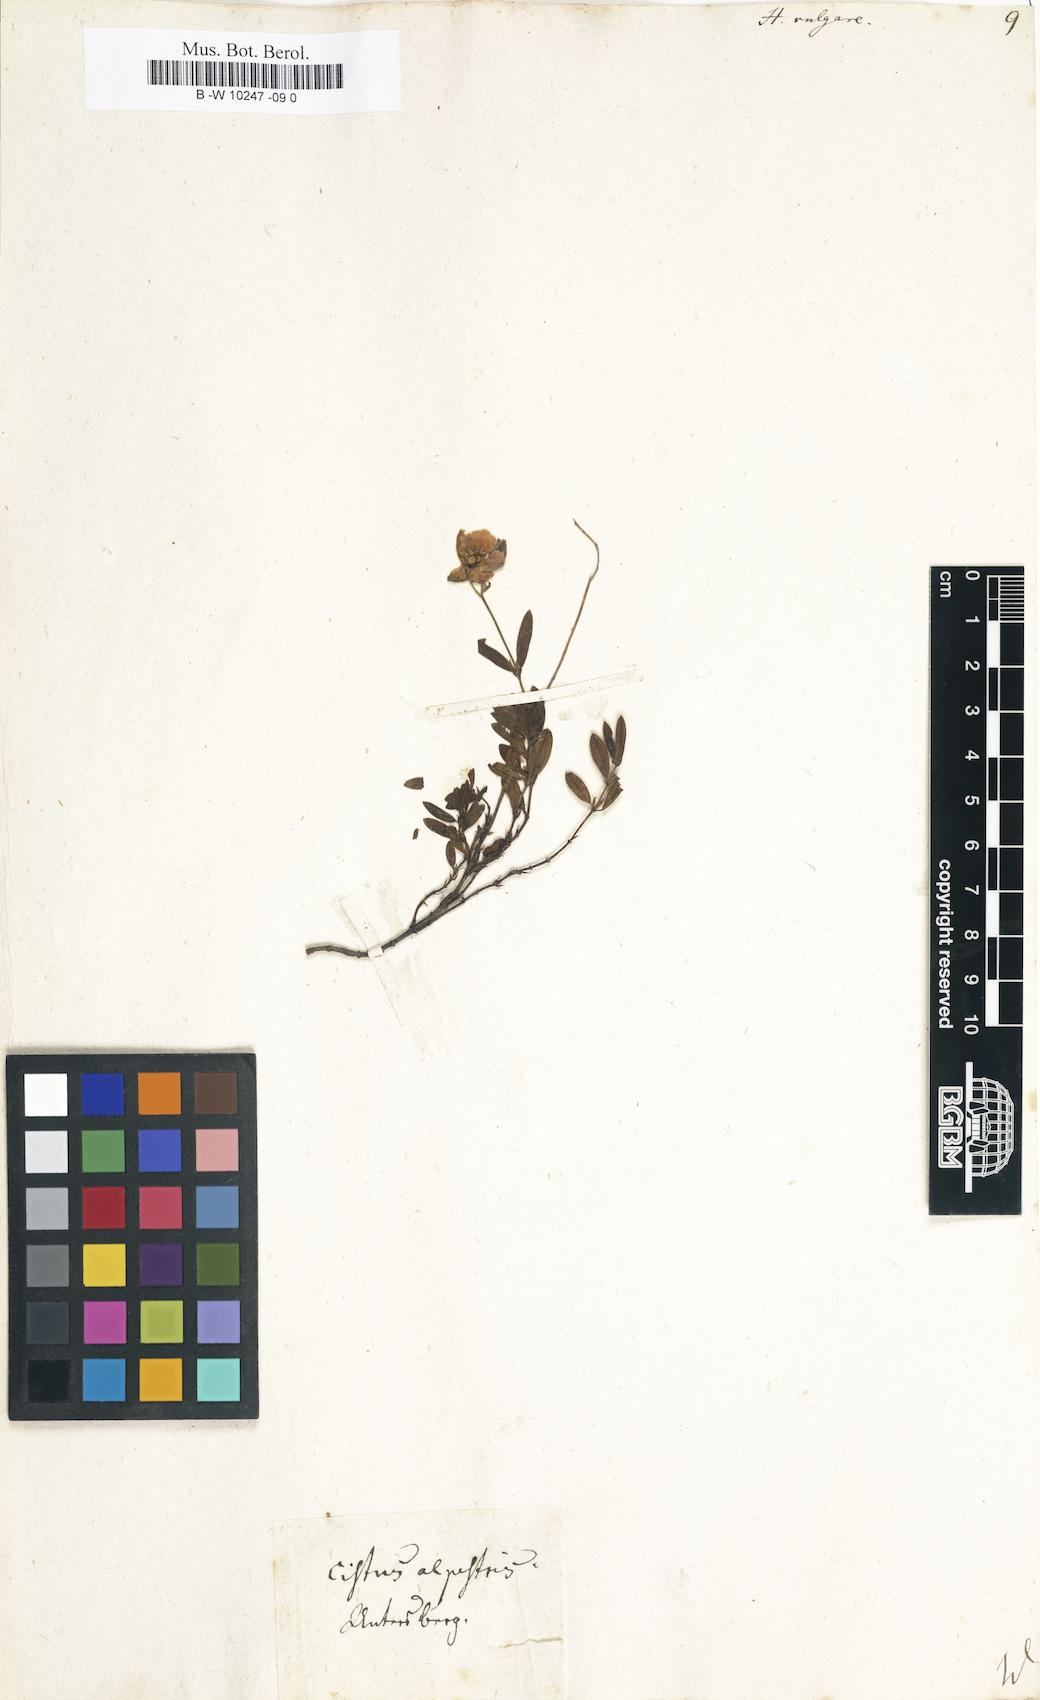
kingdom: Plantae
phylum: Tracheophyta
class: Magnoliopsida
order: Malvales
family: Cistaceae
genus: Helianthemum
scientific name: Helianthemum nummularium
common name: Common rock-rose
